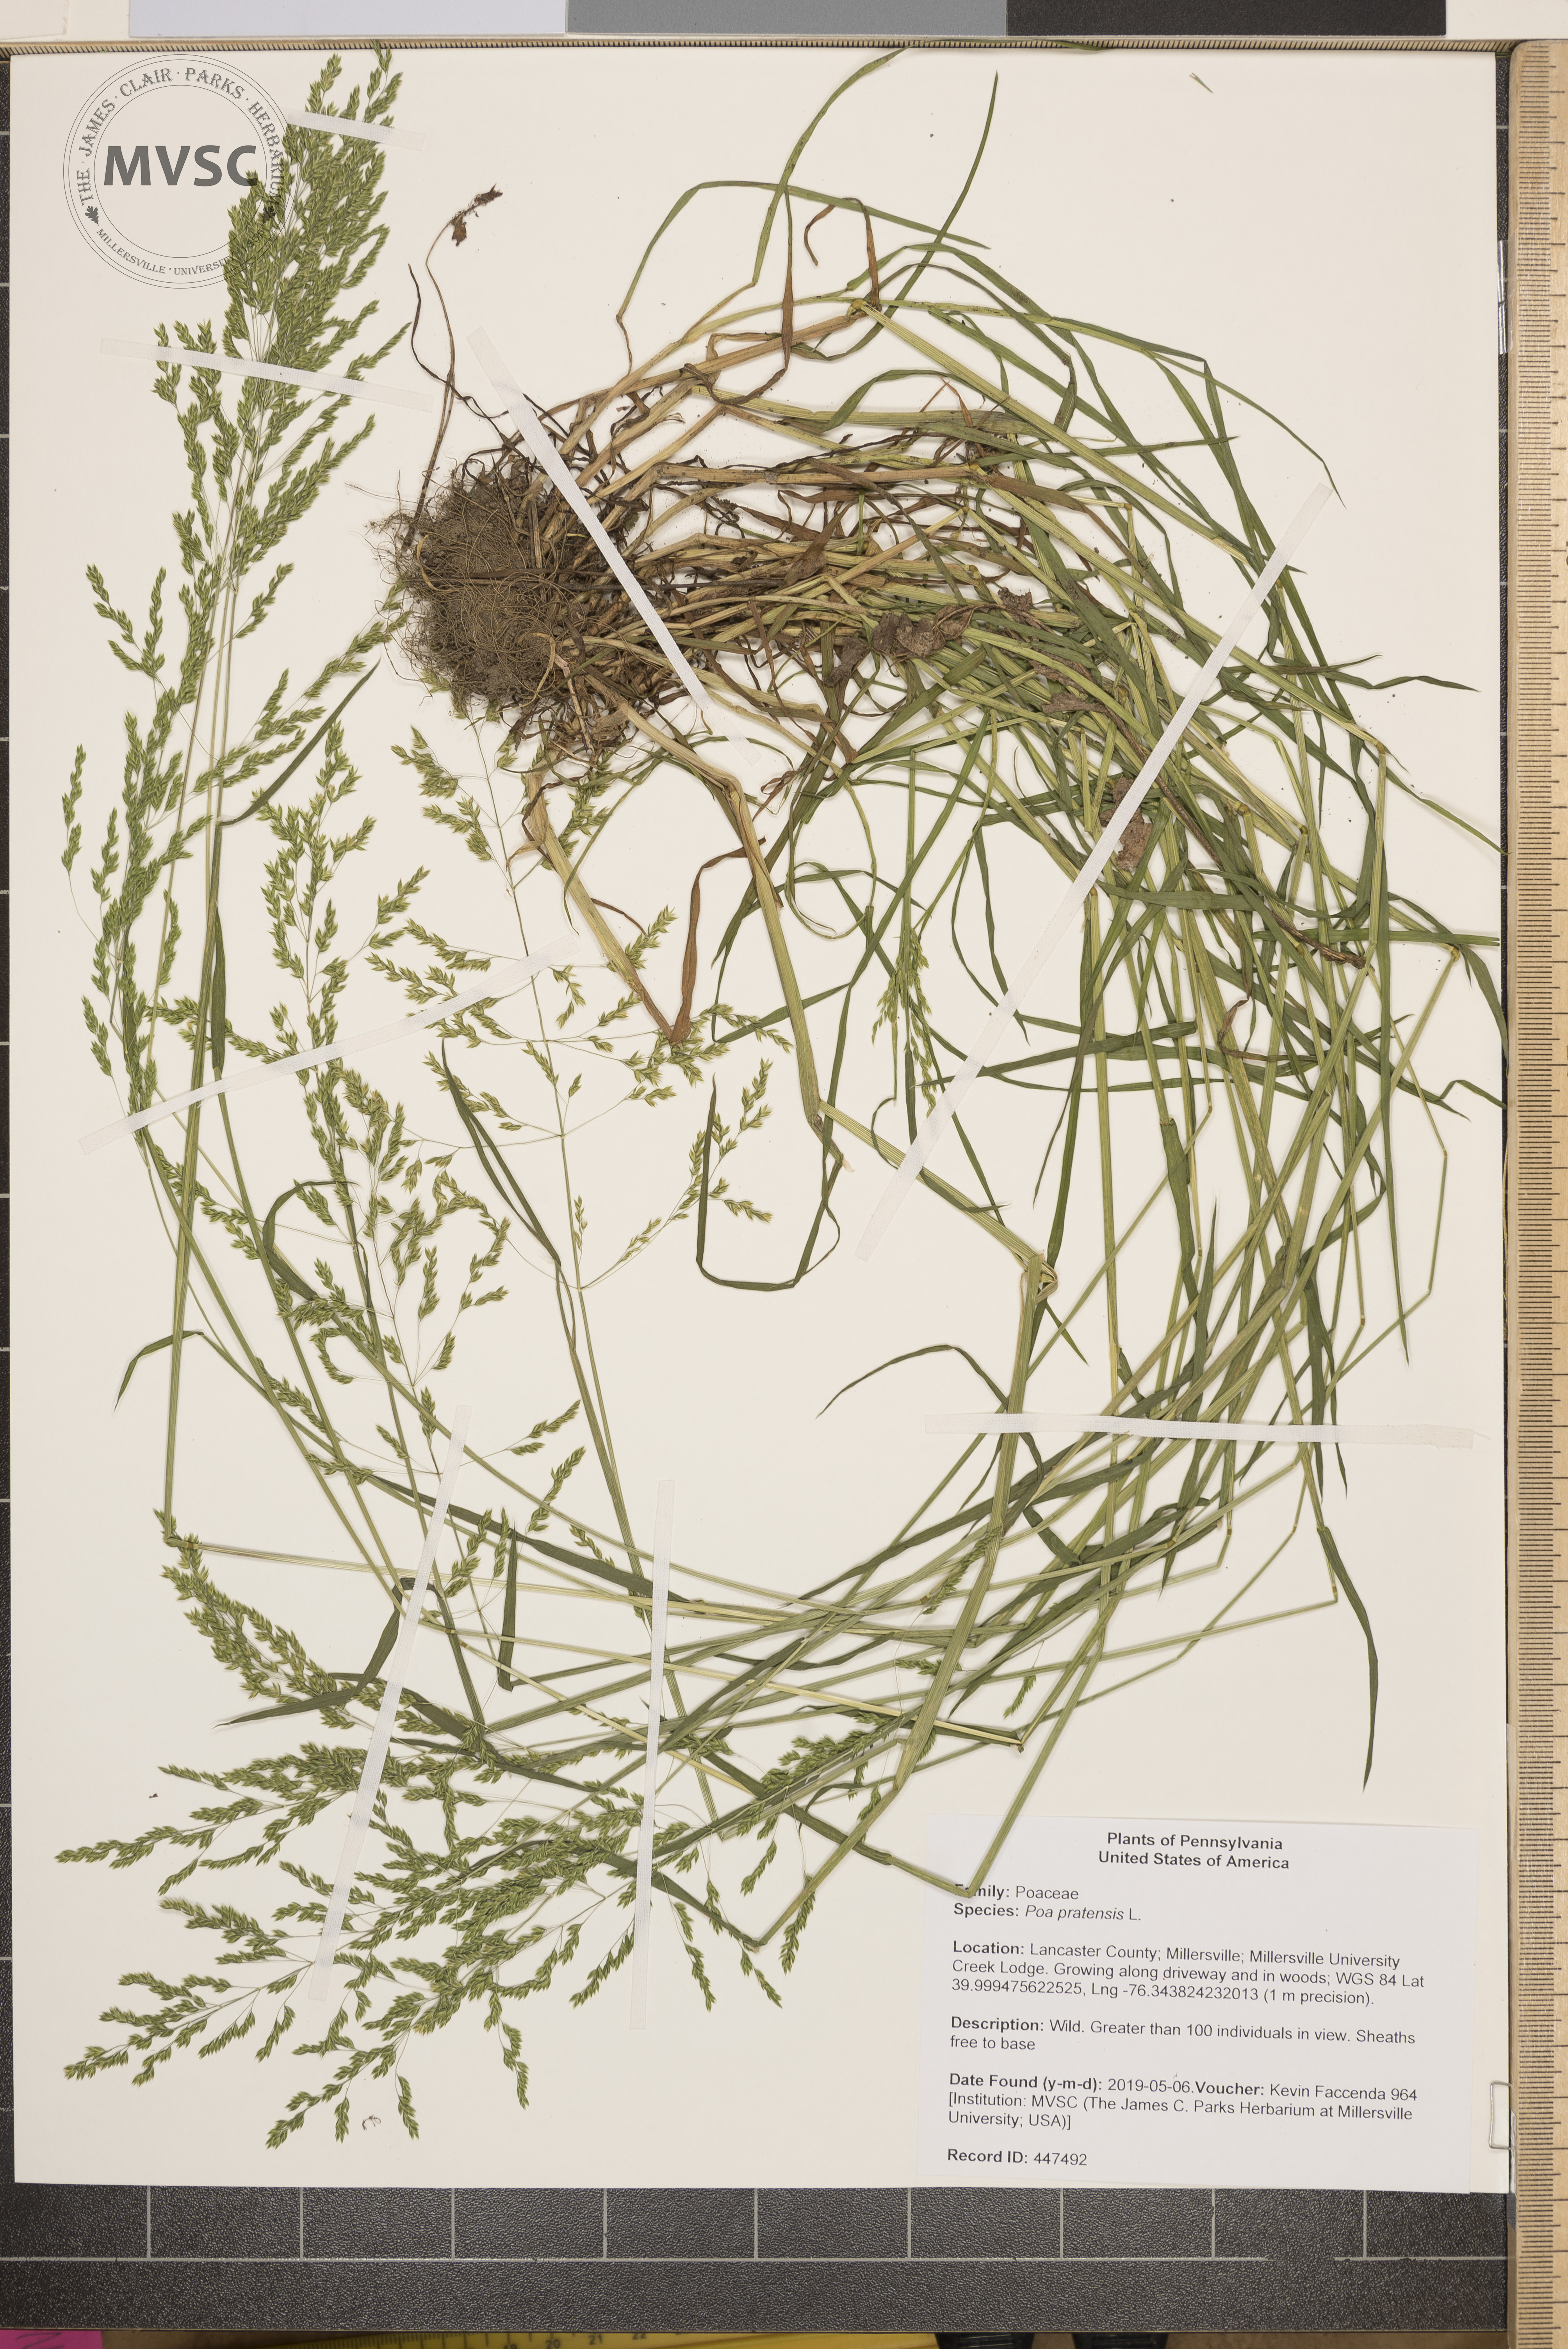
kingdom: Plantae
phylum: Tracheophyta
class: Liliopsida
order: Poales
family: Poaceae
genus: Poa
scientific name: Poa trivialis
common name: Rough bluegrass
